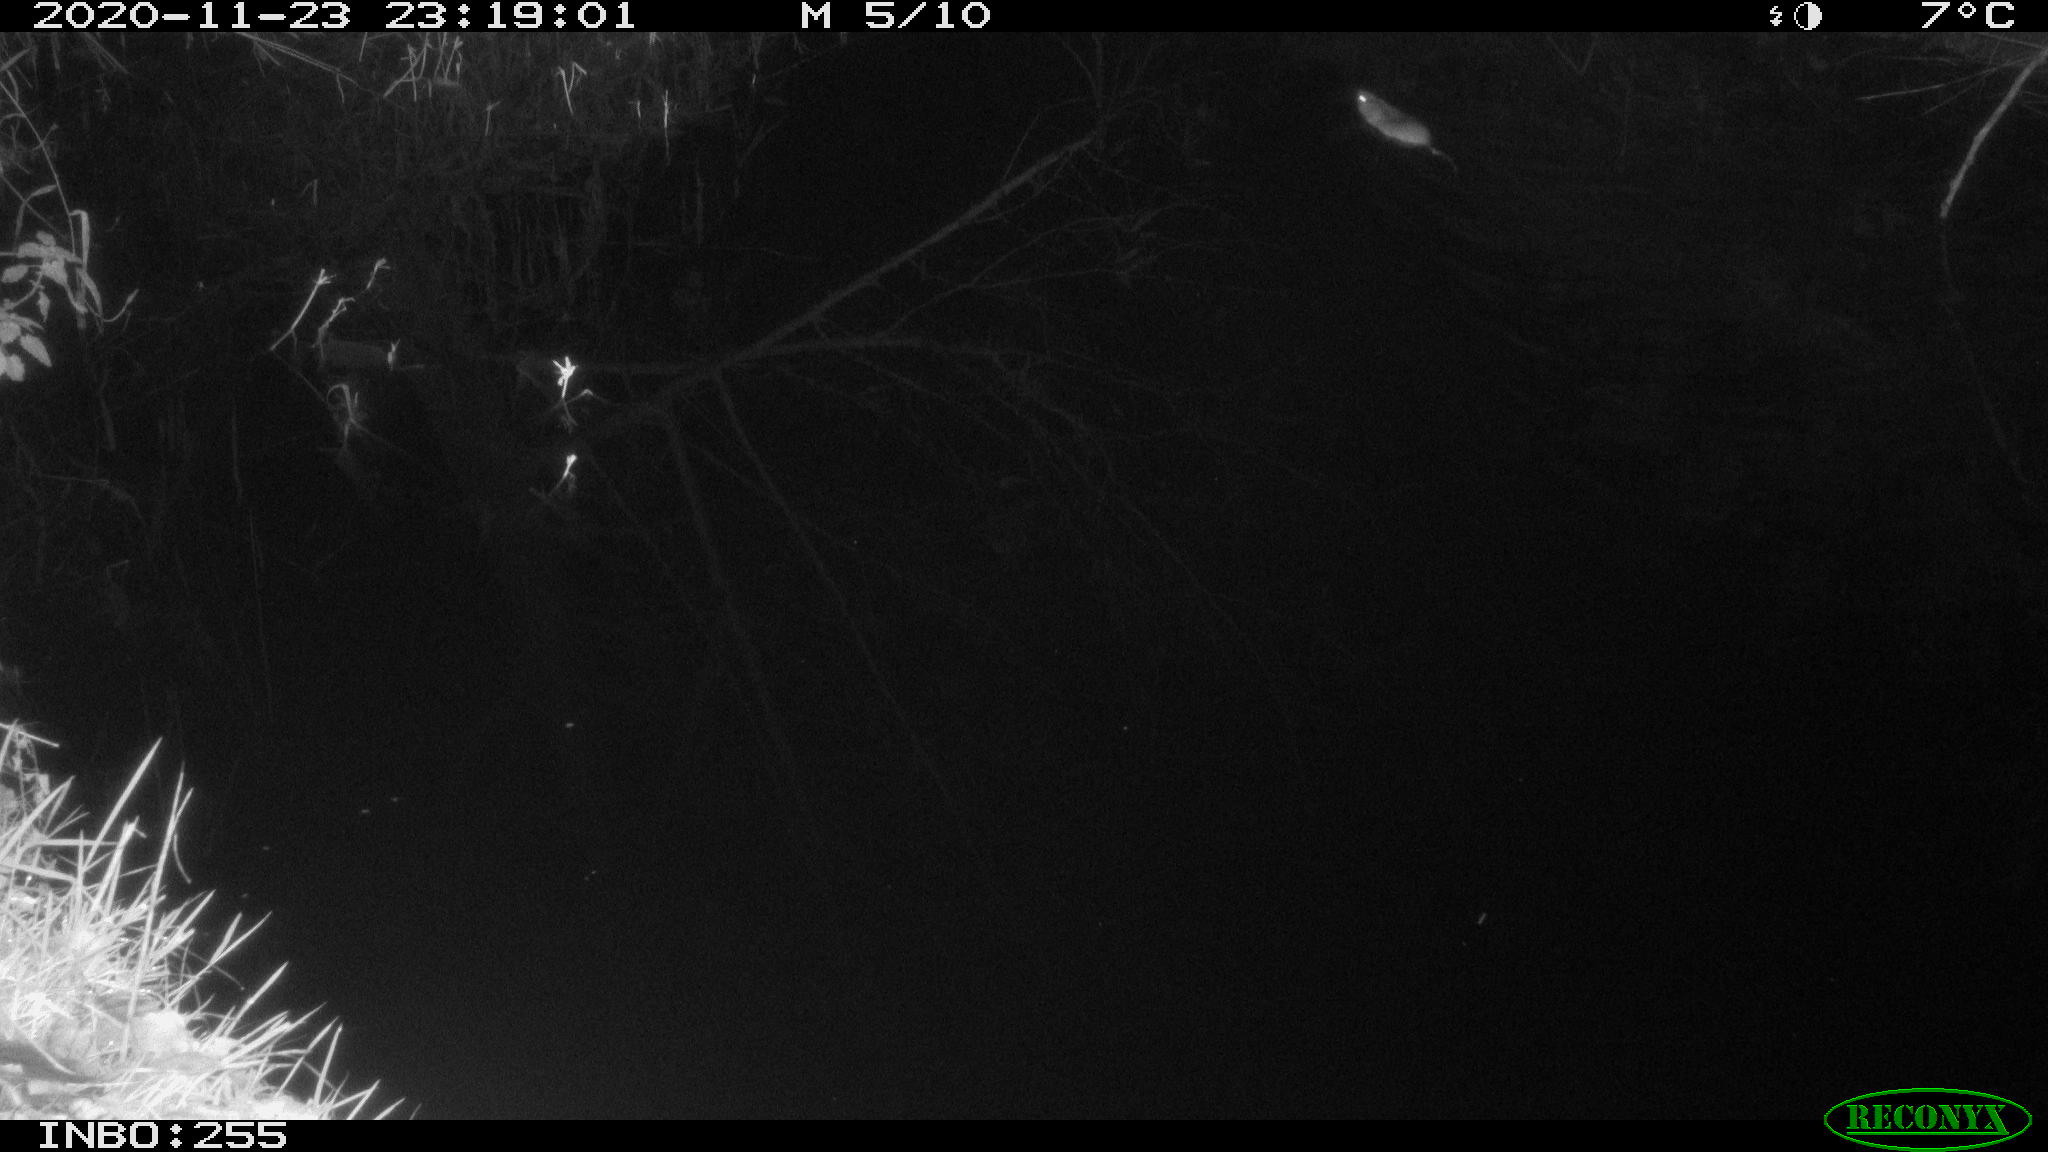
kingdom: Animalia
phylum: Chordata
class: Mammalia
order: Rodentia
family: Muridae
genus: Rattus
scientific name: Rattus norvegicus
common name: Brown rat
